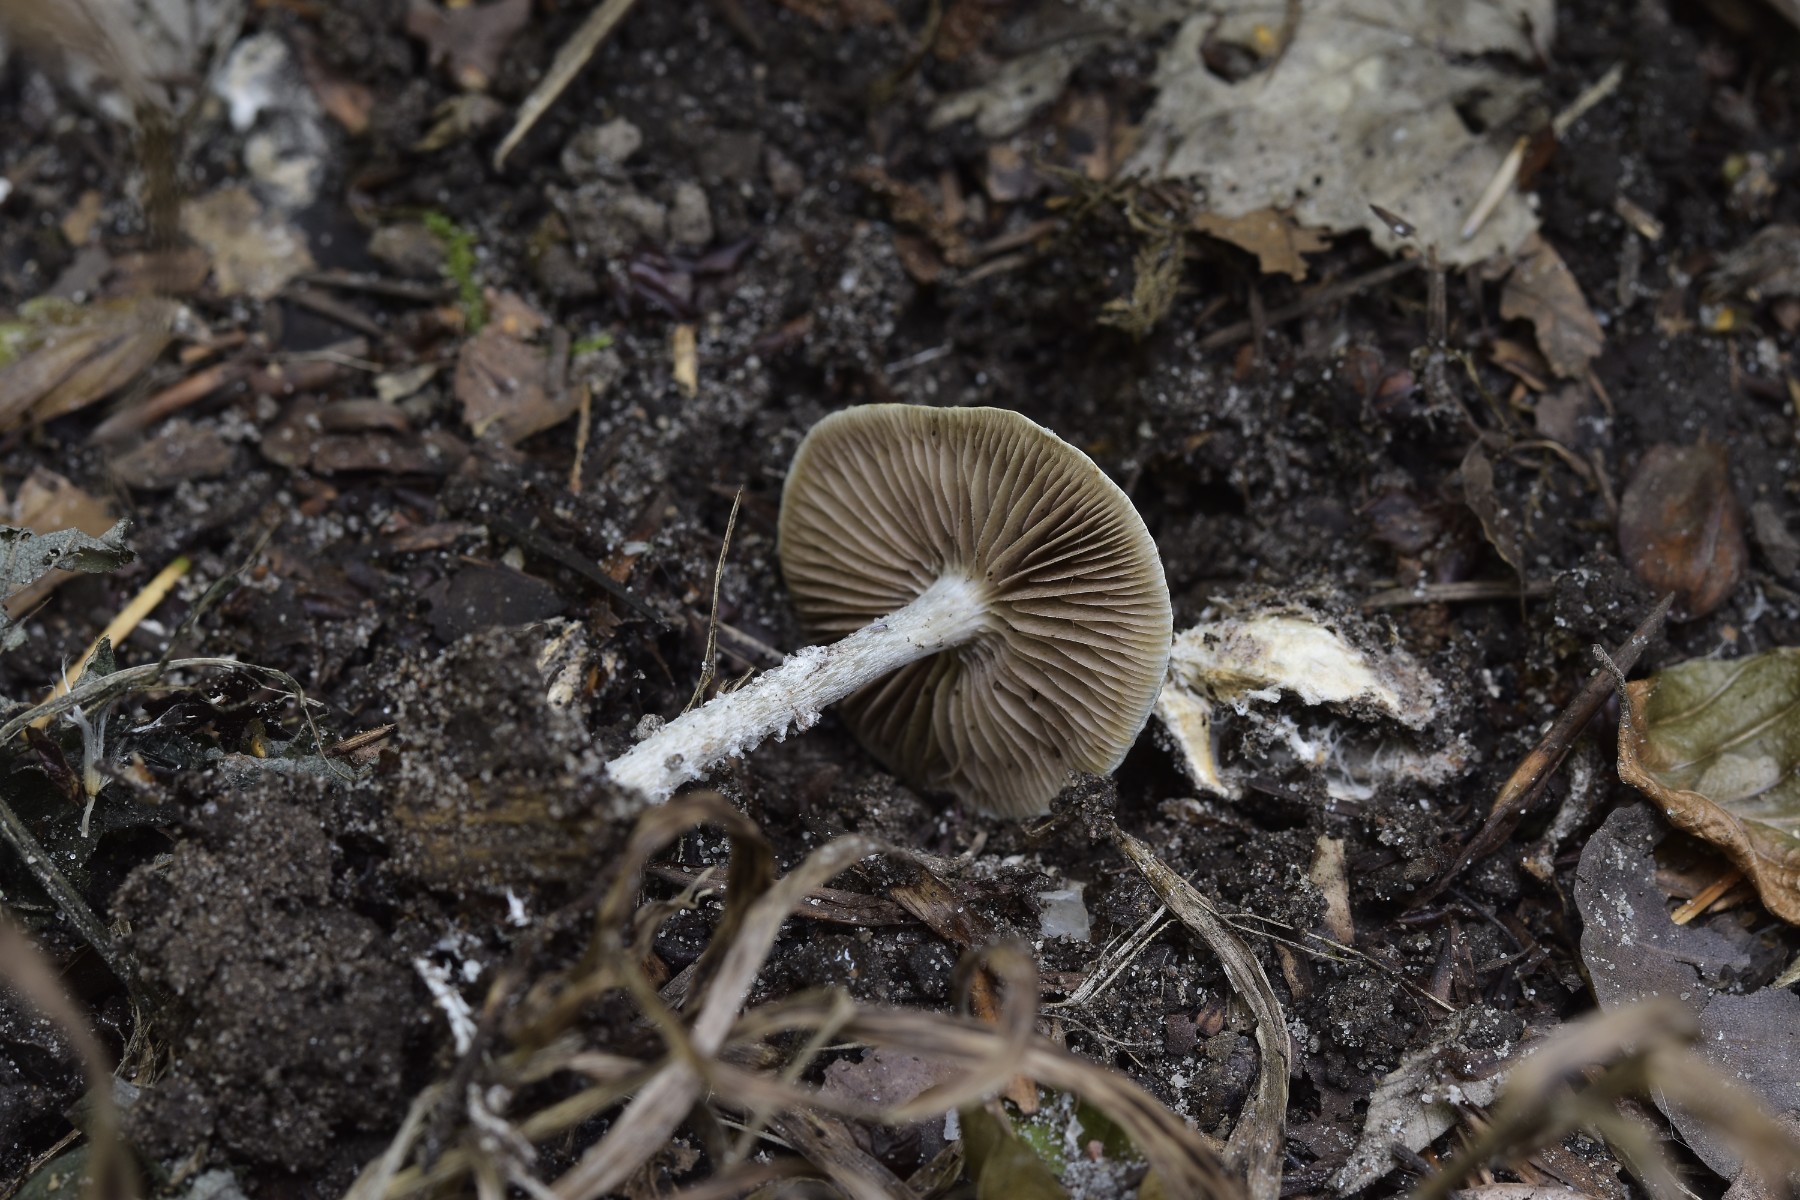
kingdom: Fungi
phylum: Basidiomycota
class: Agaricomycetes
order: Agaricales
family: Strophariaceae
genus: Stropharia
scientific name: Stropharia cyanea
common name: blågrøn bredblad
